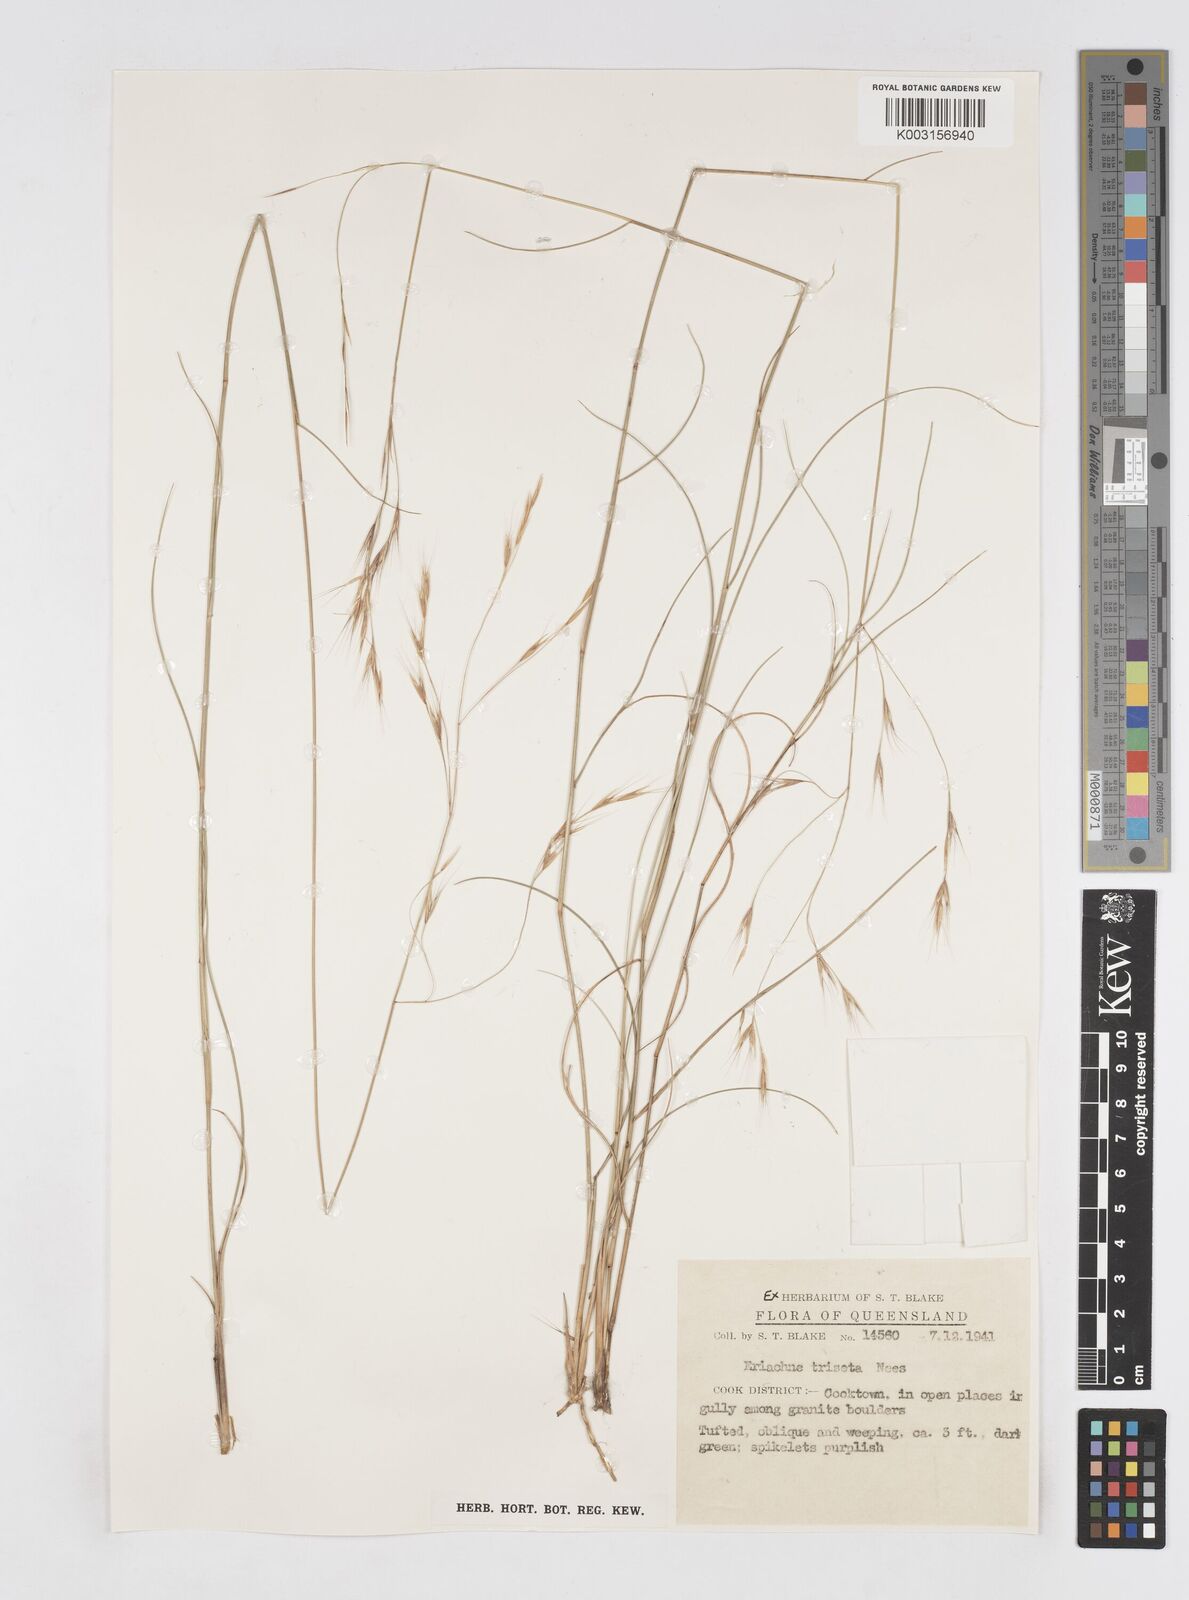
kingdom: Plantae
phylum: Tracheophyta
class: Liliopsida
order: Poales
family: Poaceae
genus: Eriachne
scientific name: Eriachne triseta
